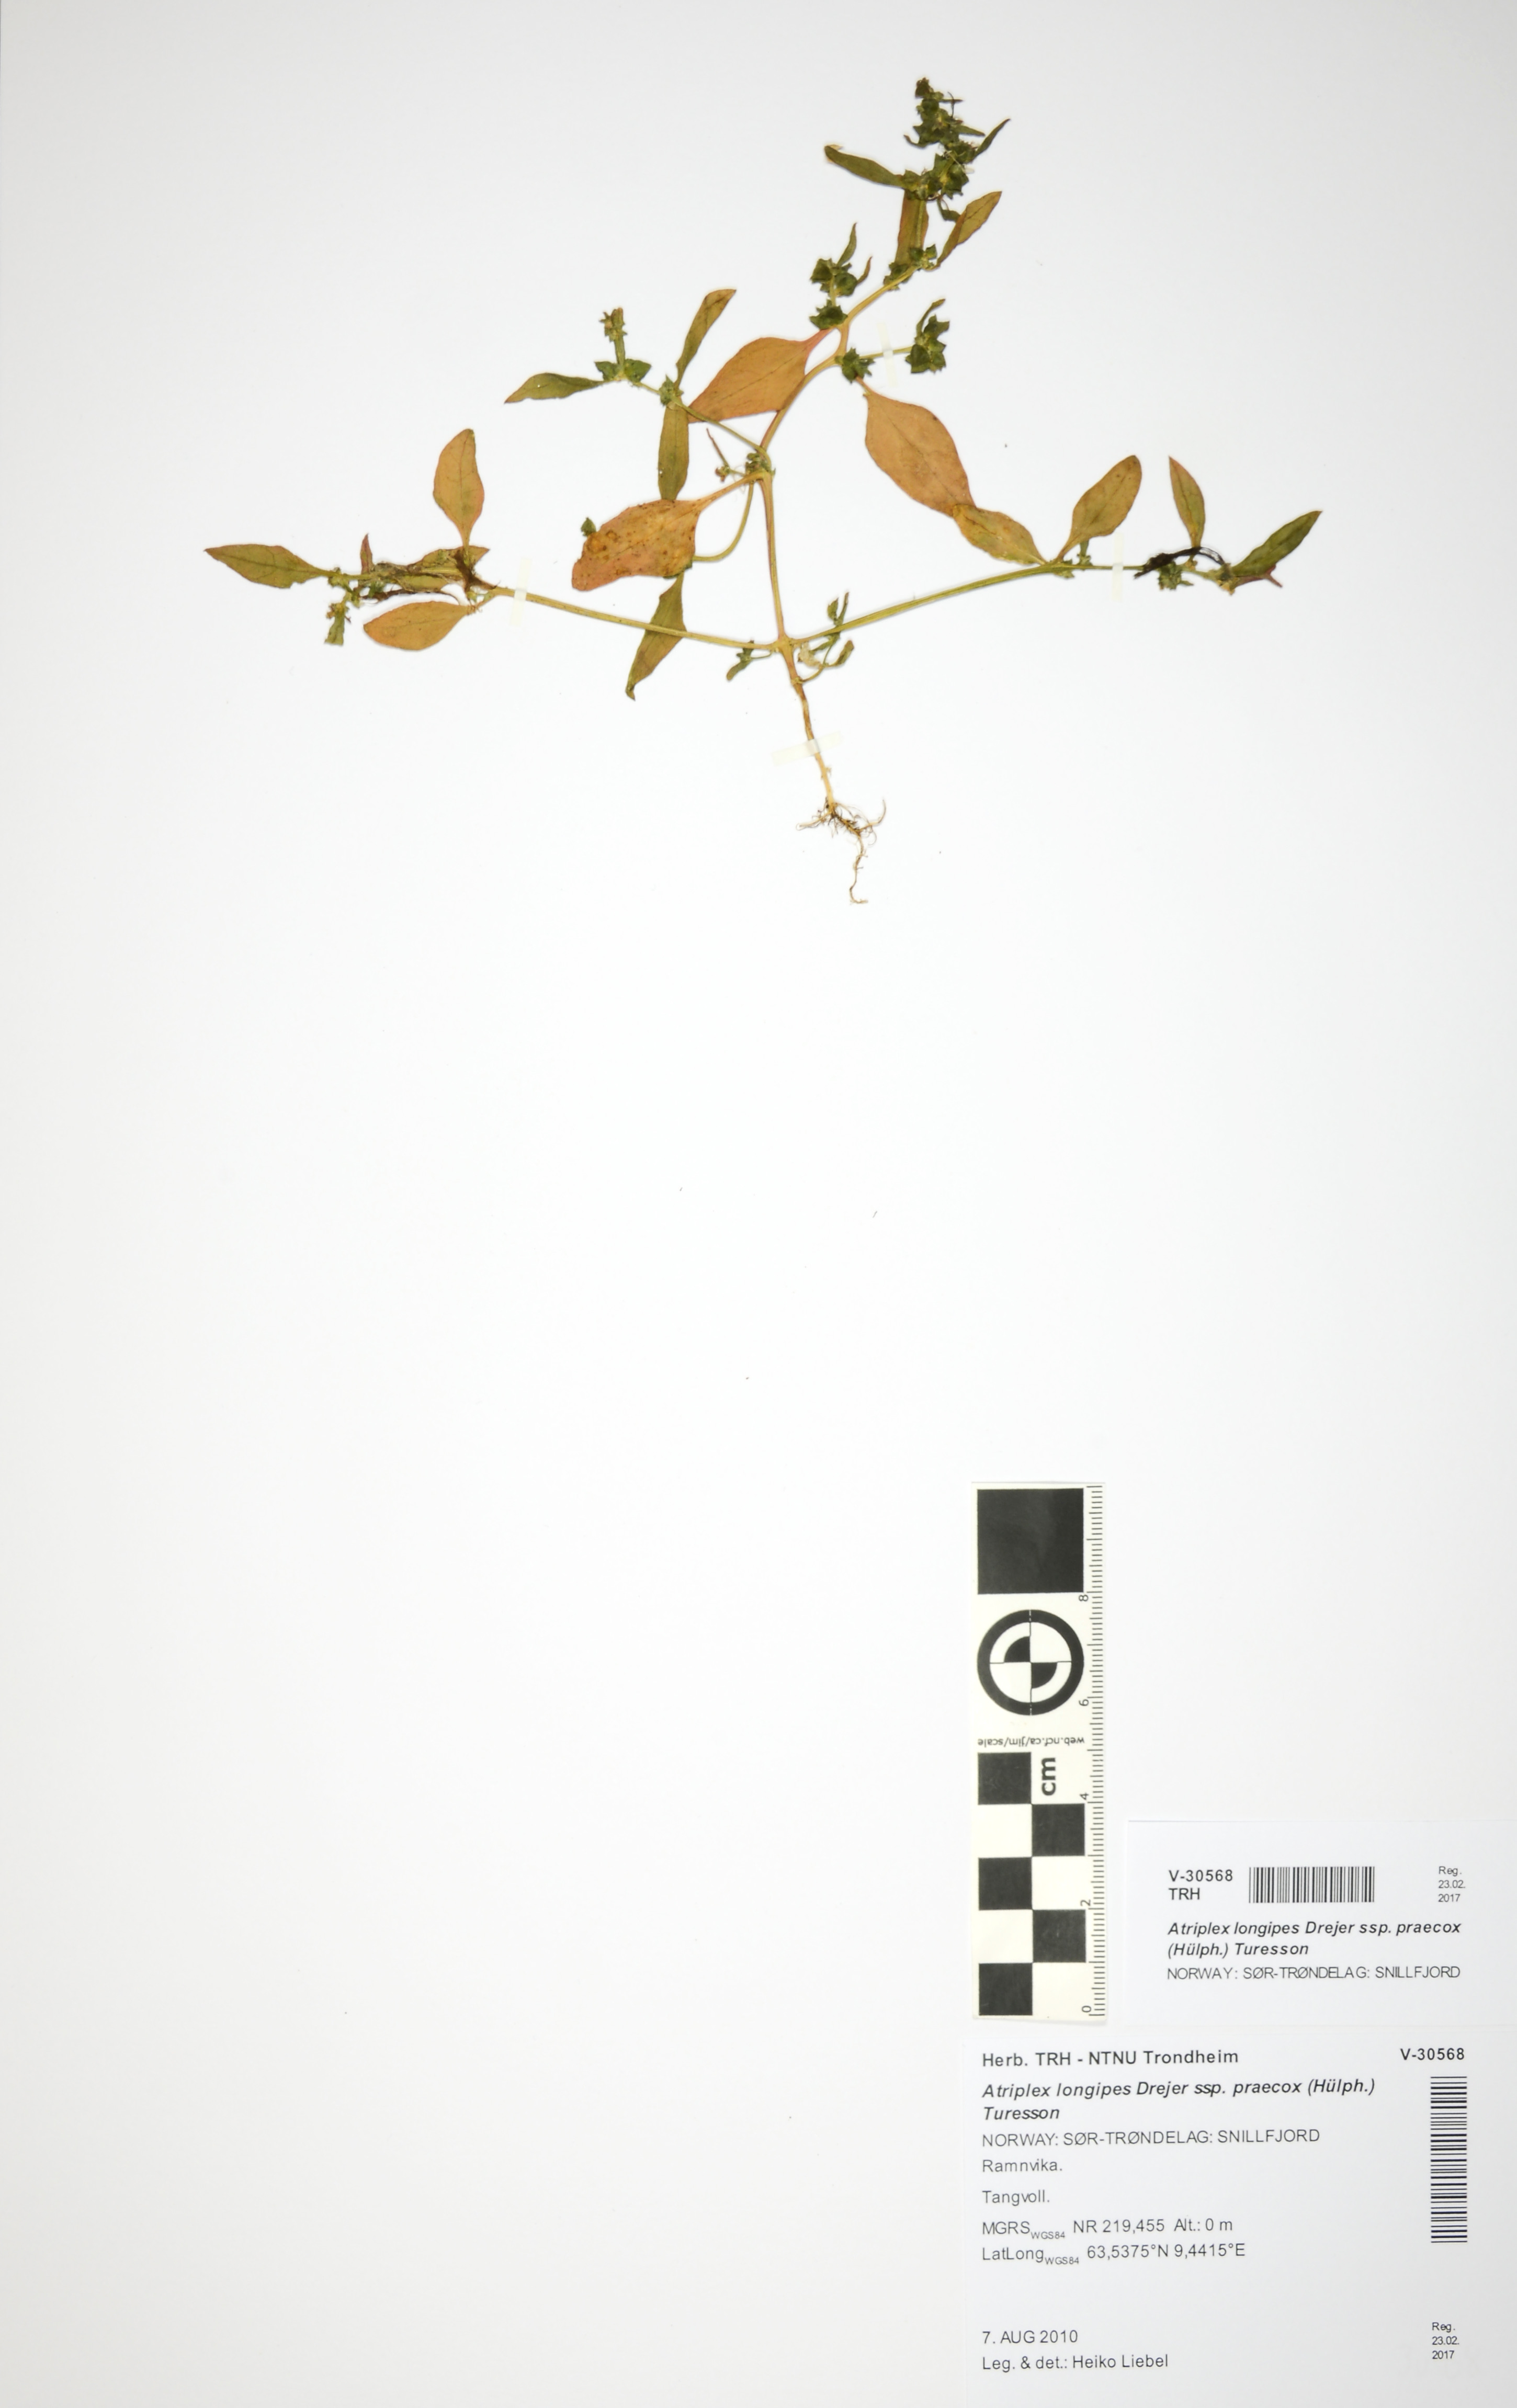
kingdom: Plantae
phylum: Tracheophyta
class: Magnoliopsida
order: Caryophyllales
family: Amaranthaceae
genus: Atriplex
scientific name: Atriplex praecox
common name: Early orache
